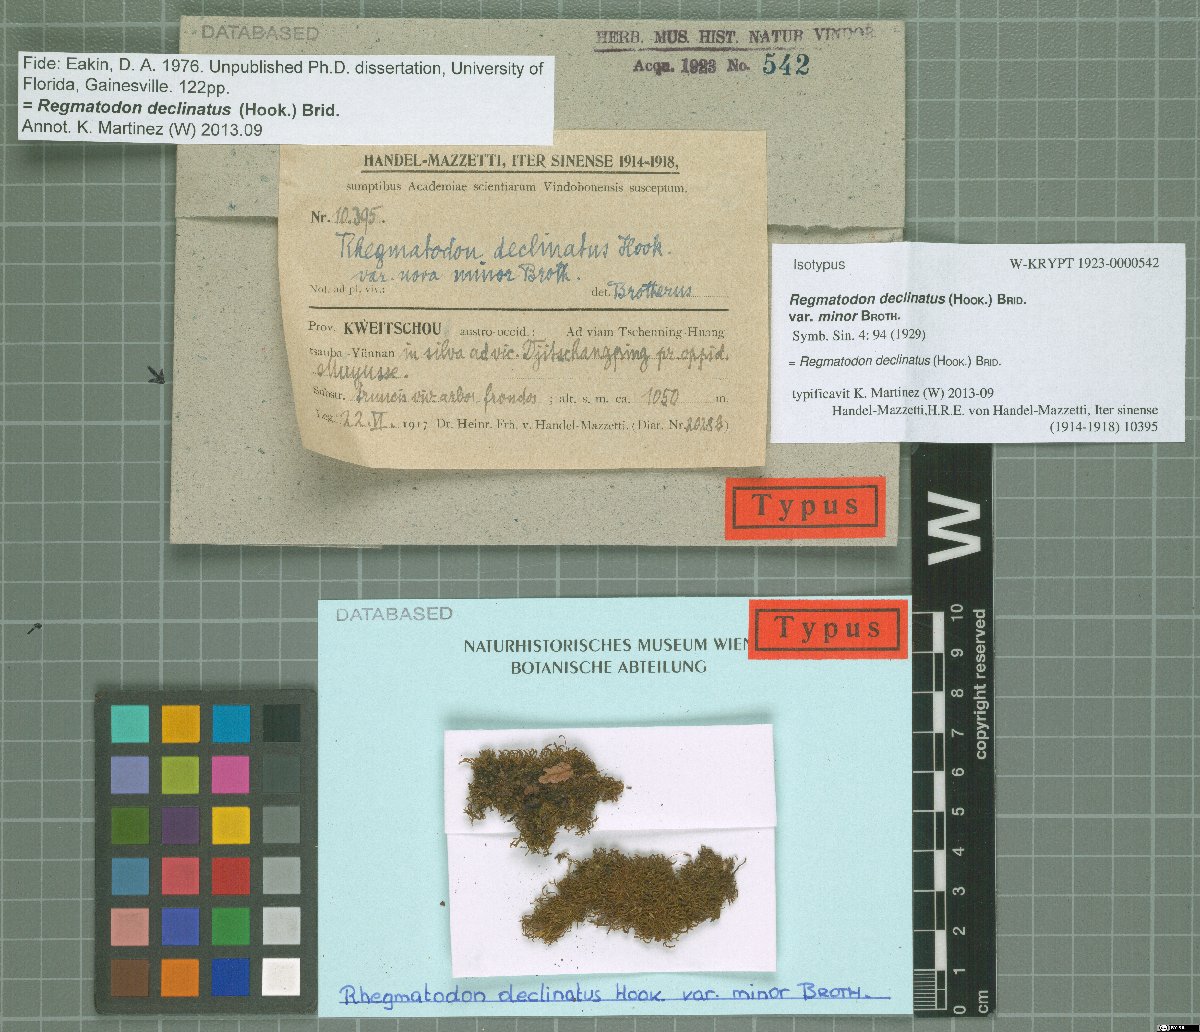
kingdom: Plantae
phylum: Bryophyta
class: Bryopsida
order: Hypnales
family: Regmatodontaceae
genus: Regmatodon
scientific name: Regmatodon declinatus
